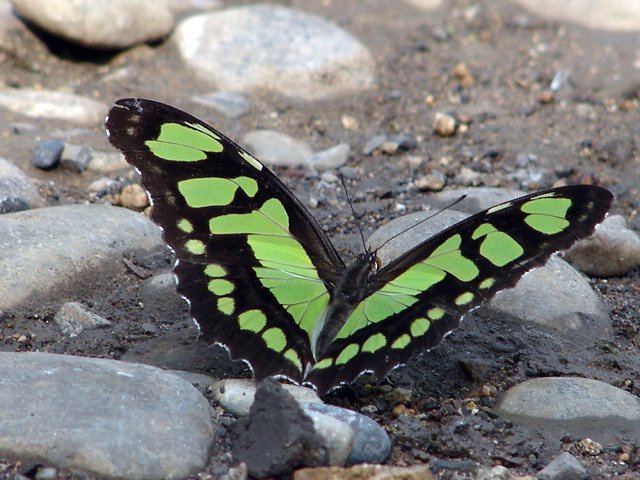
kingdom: Animalia
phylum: Arthropoda
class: Insecta
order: Lepidoptera
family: Nymphalidae
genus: Siproeta
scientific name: Siproeta stelenes
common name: Malachite
